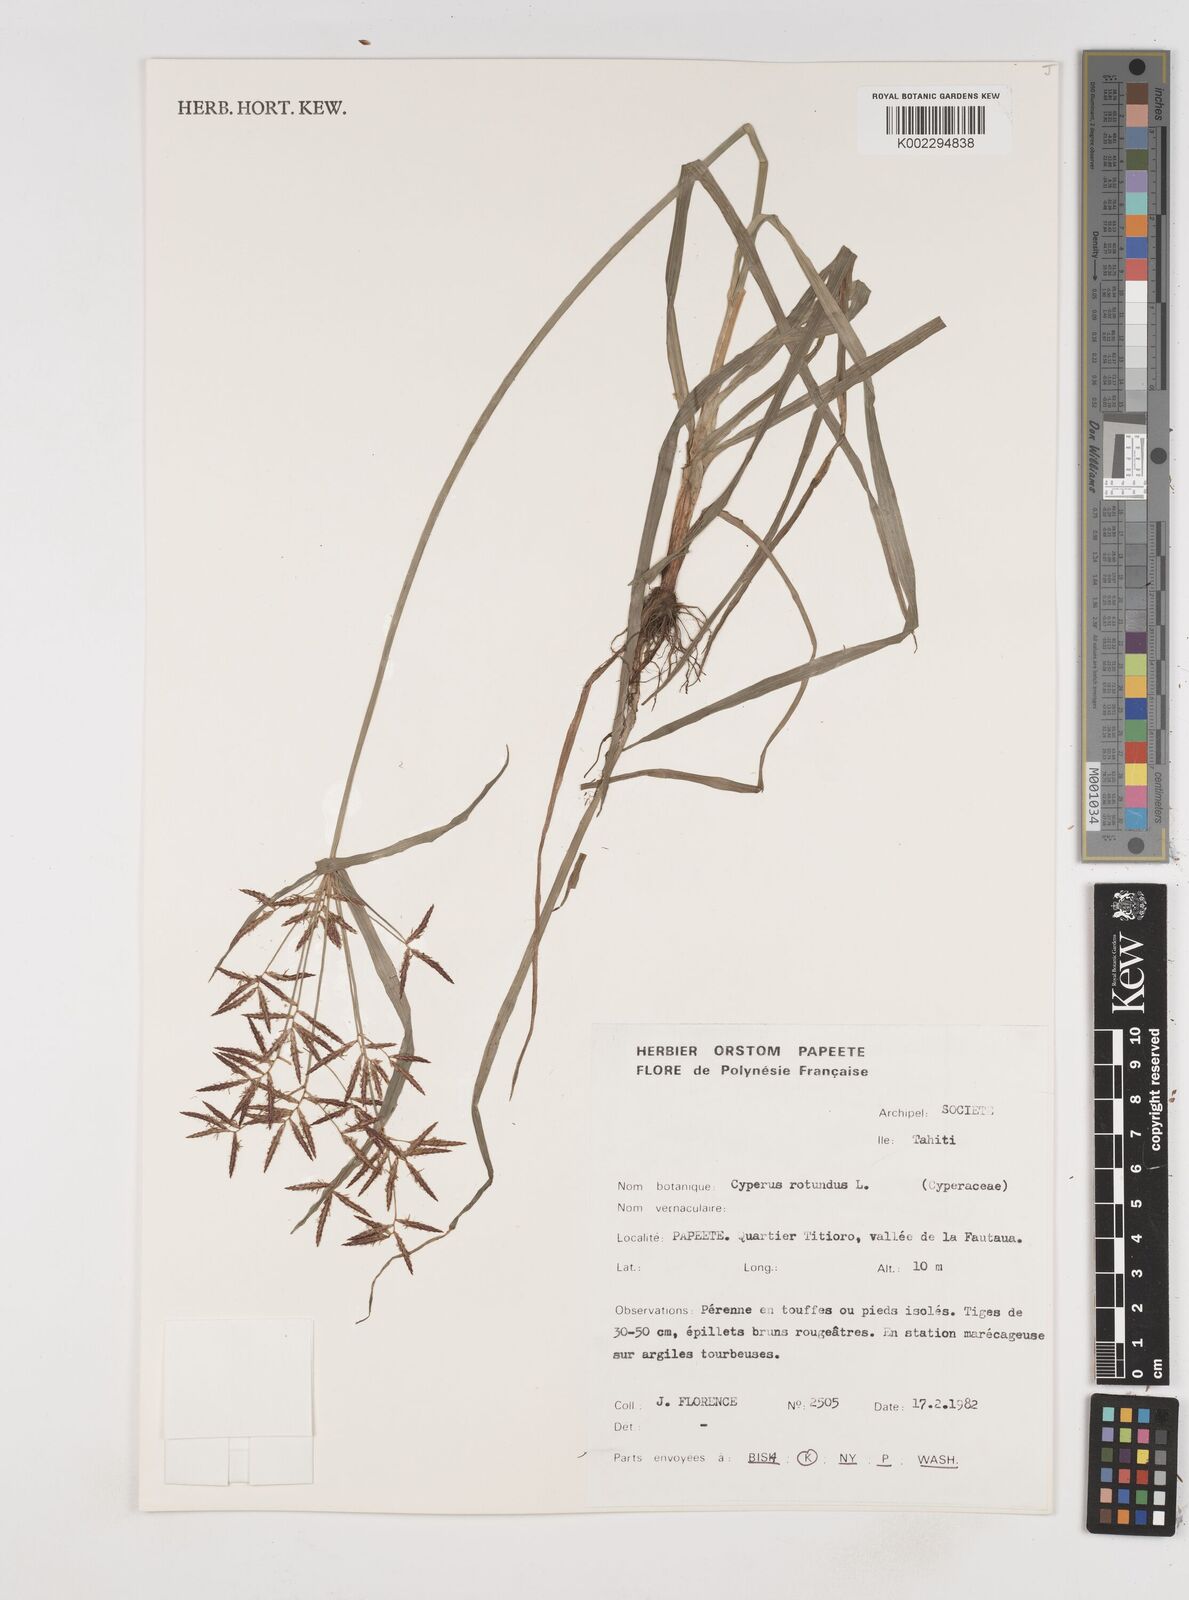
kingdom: Plantae
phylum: Tracheophyta
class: Liliopsida
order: Poales
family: Cyperaceae
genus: Cyperus
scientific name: Cyperus rotundus
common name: Nutgrass
